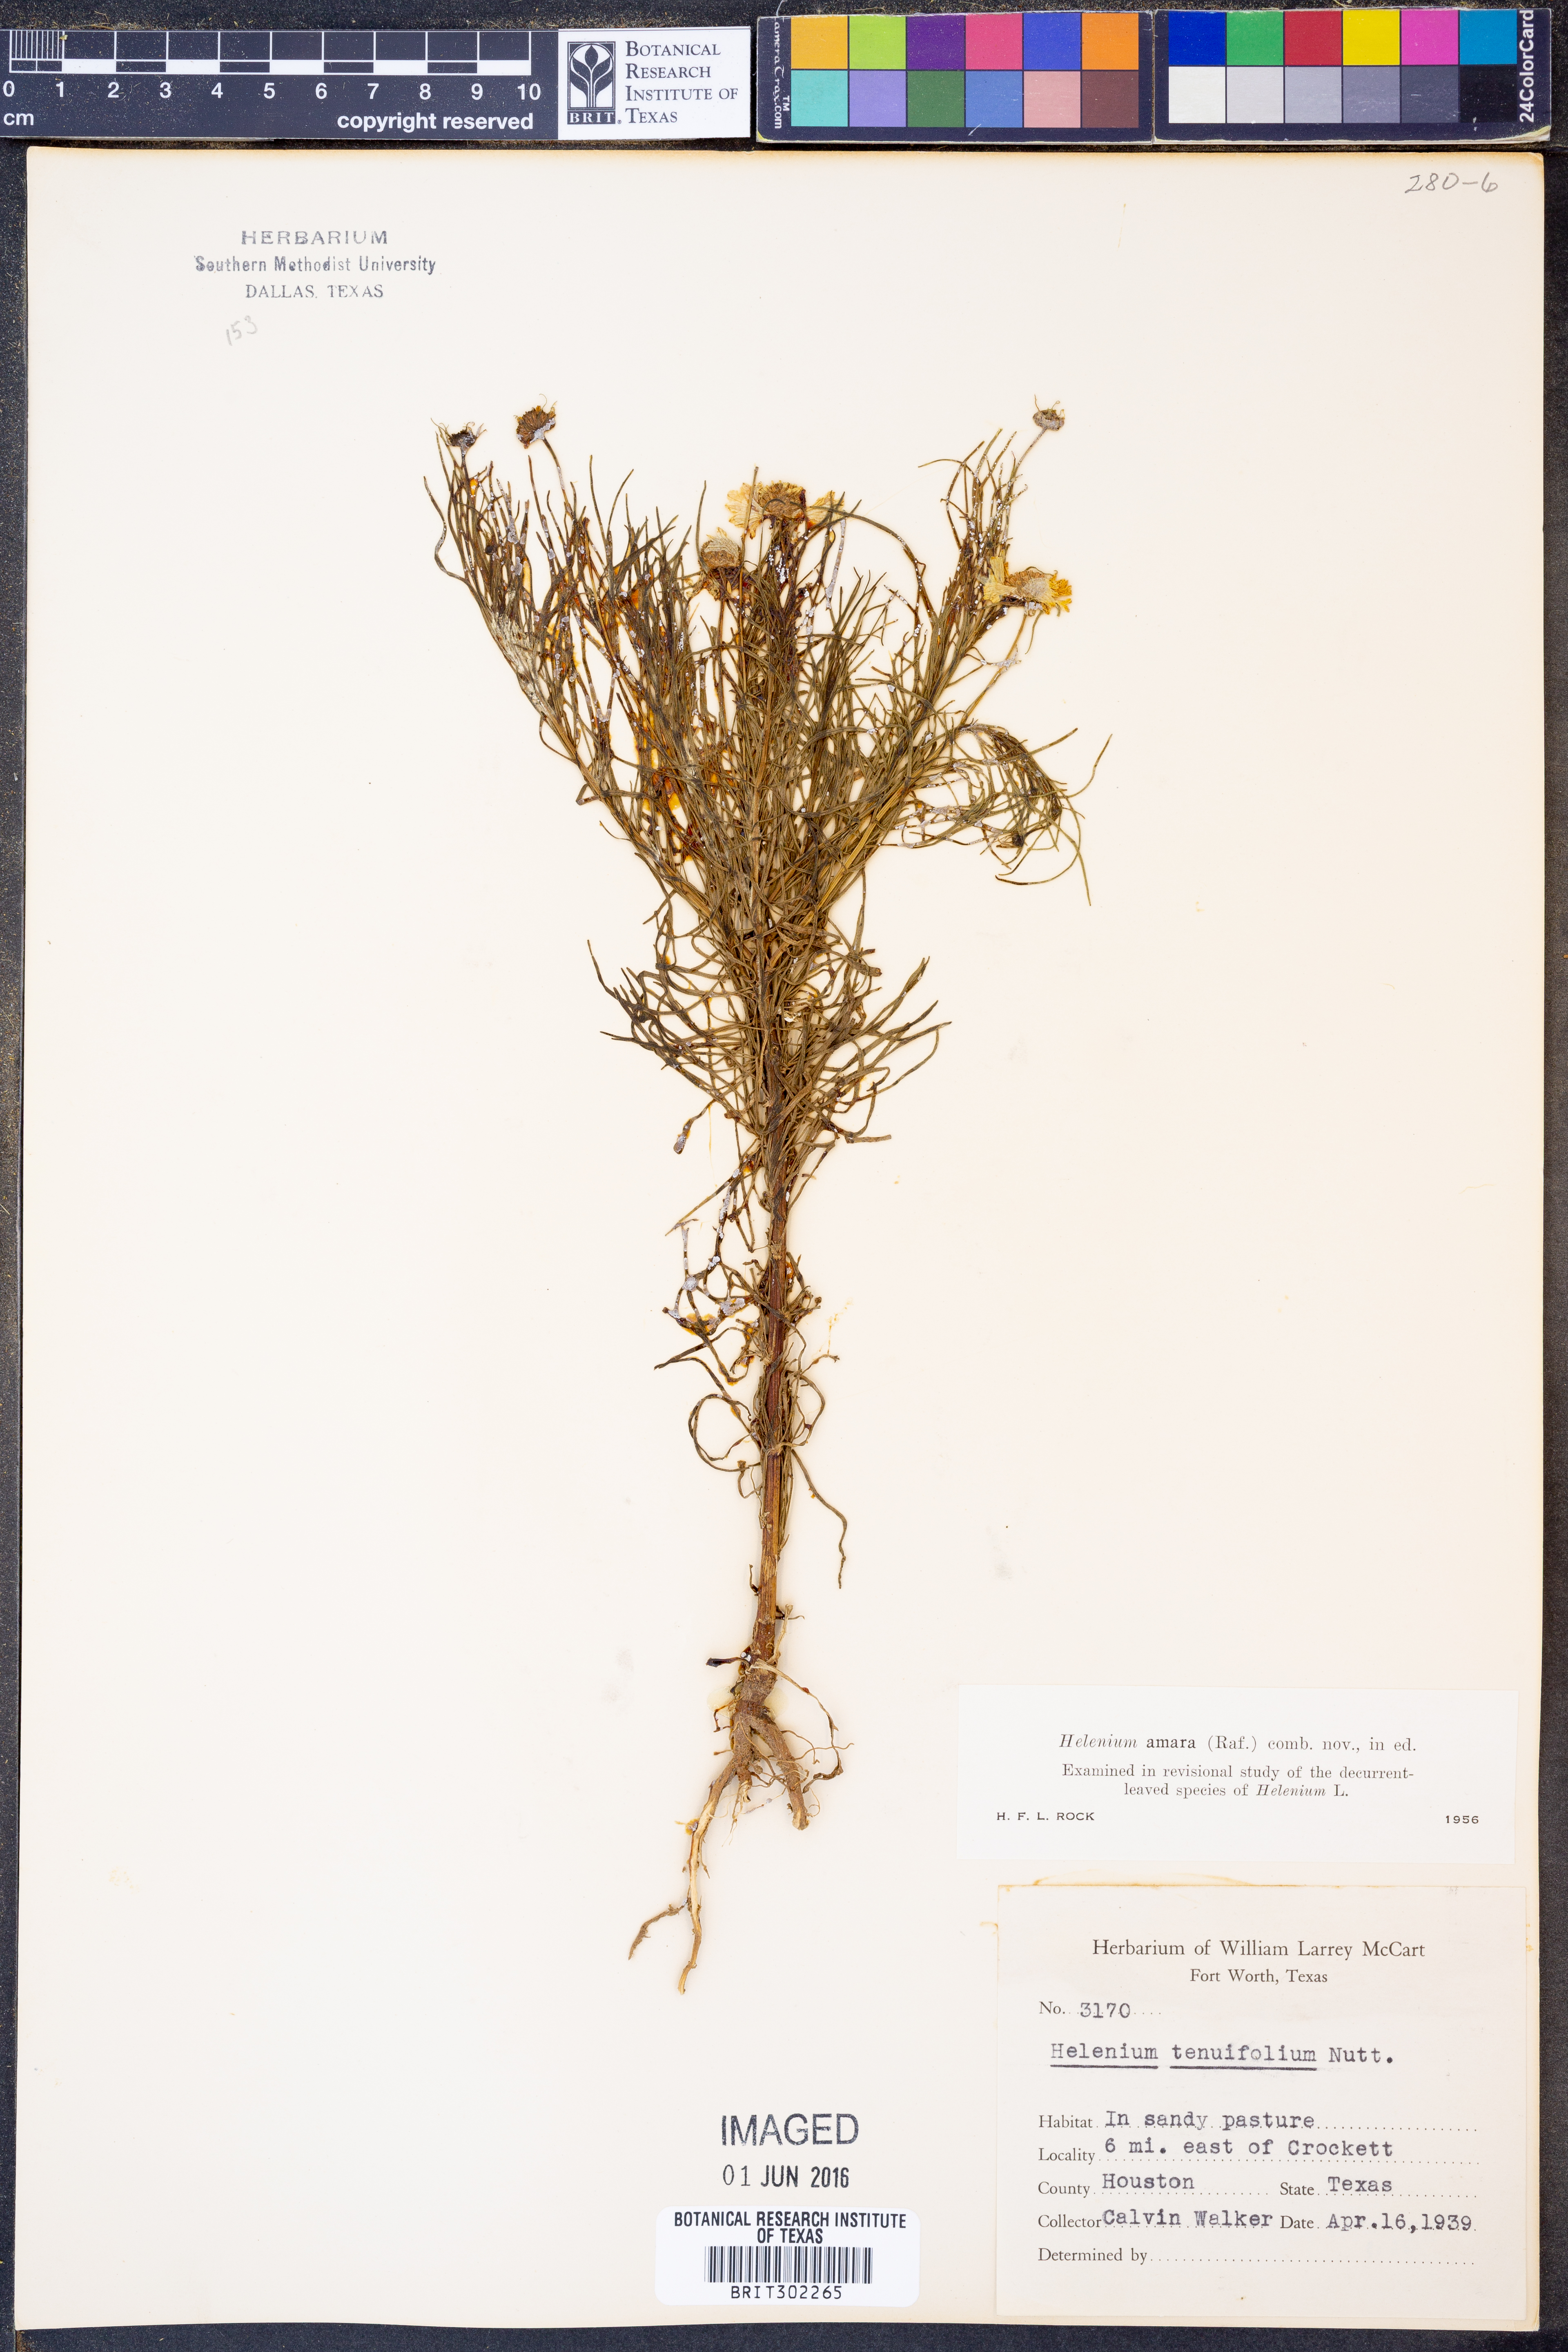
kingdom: Plantae
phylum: Tracheophyta
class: Magnoliopsida
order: Asterales
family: Asteraceae
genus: Helenium
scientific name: Helenium amarum
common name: Bitter sneezeweed
